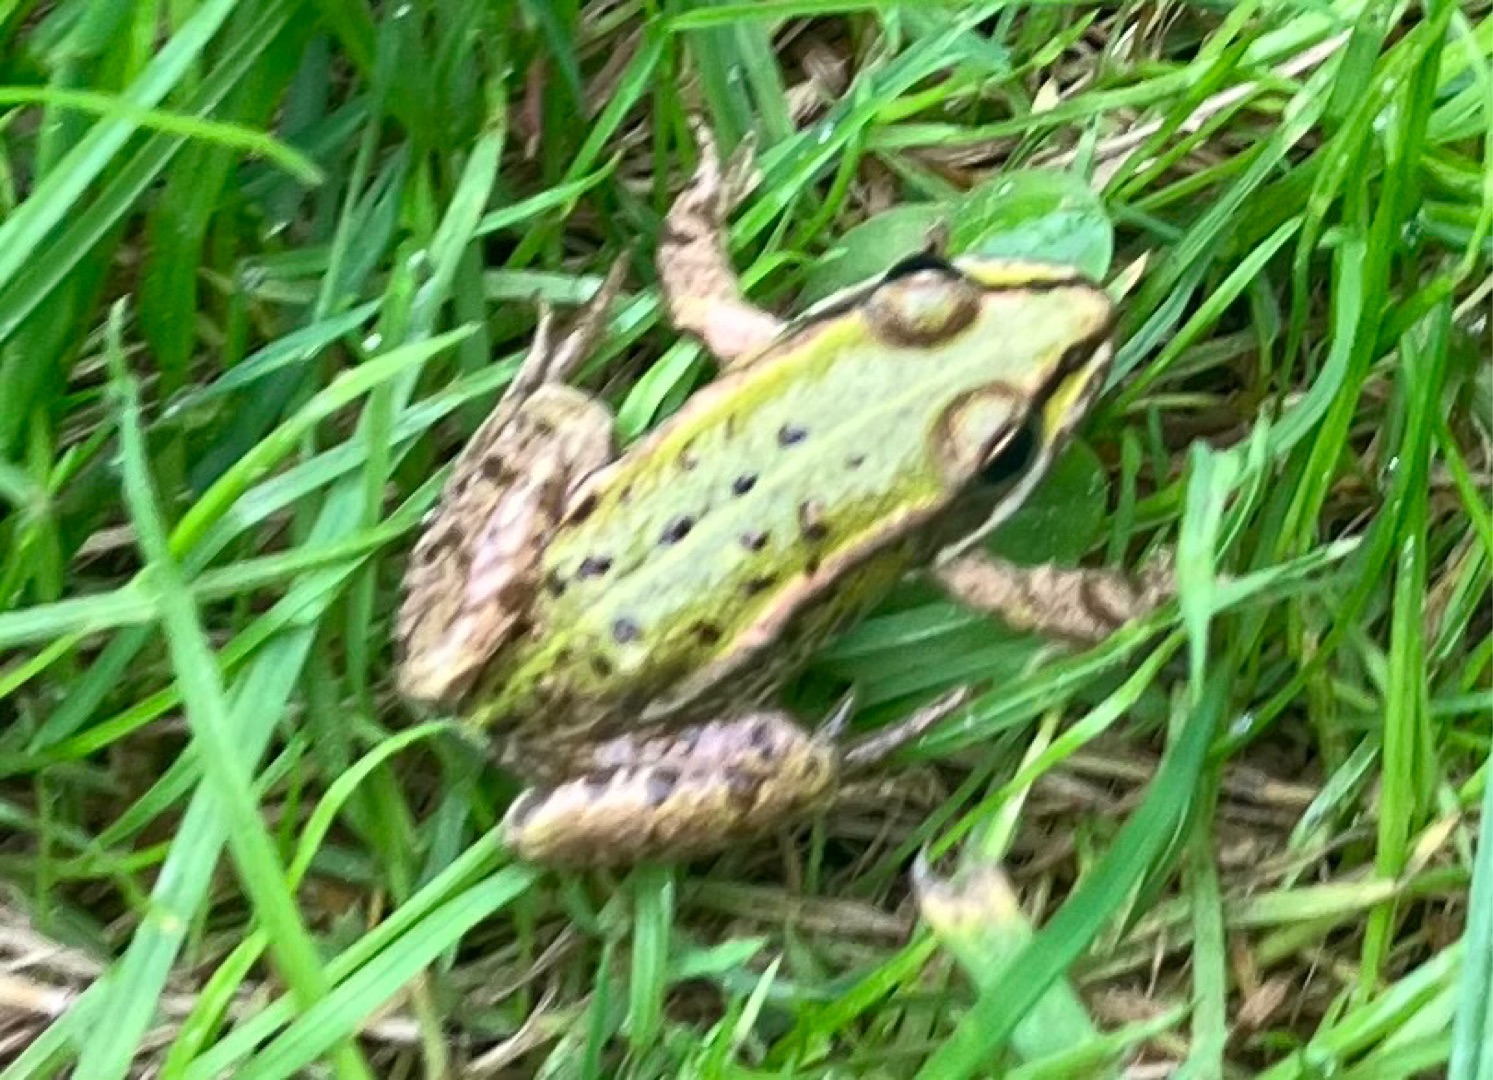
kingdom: Animalia
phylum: Chordata
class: Amphibia
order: Anura
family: Ranidae
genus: Pelophylax
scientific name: Pelophylax lessonae
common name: Grøn frø
